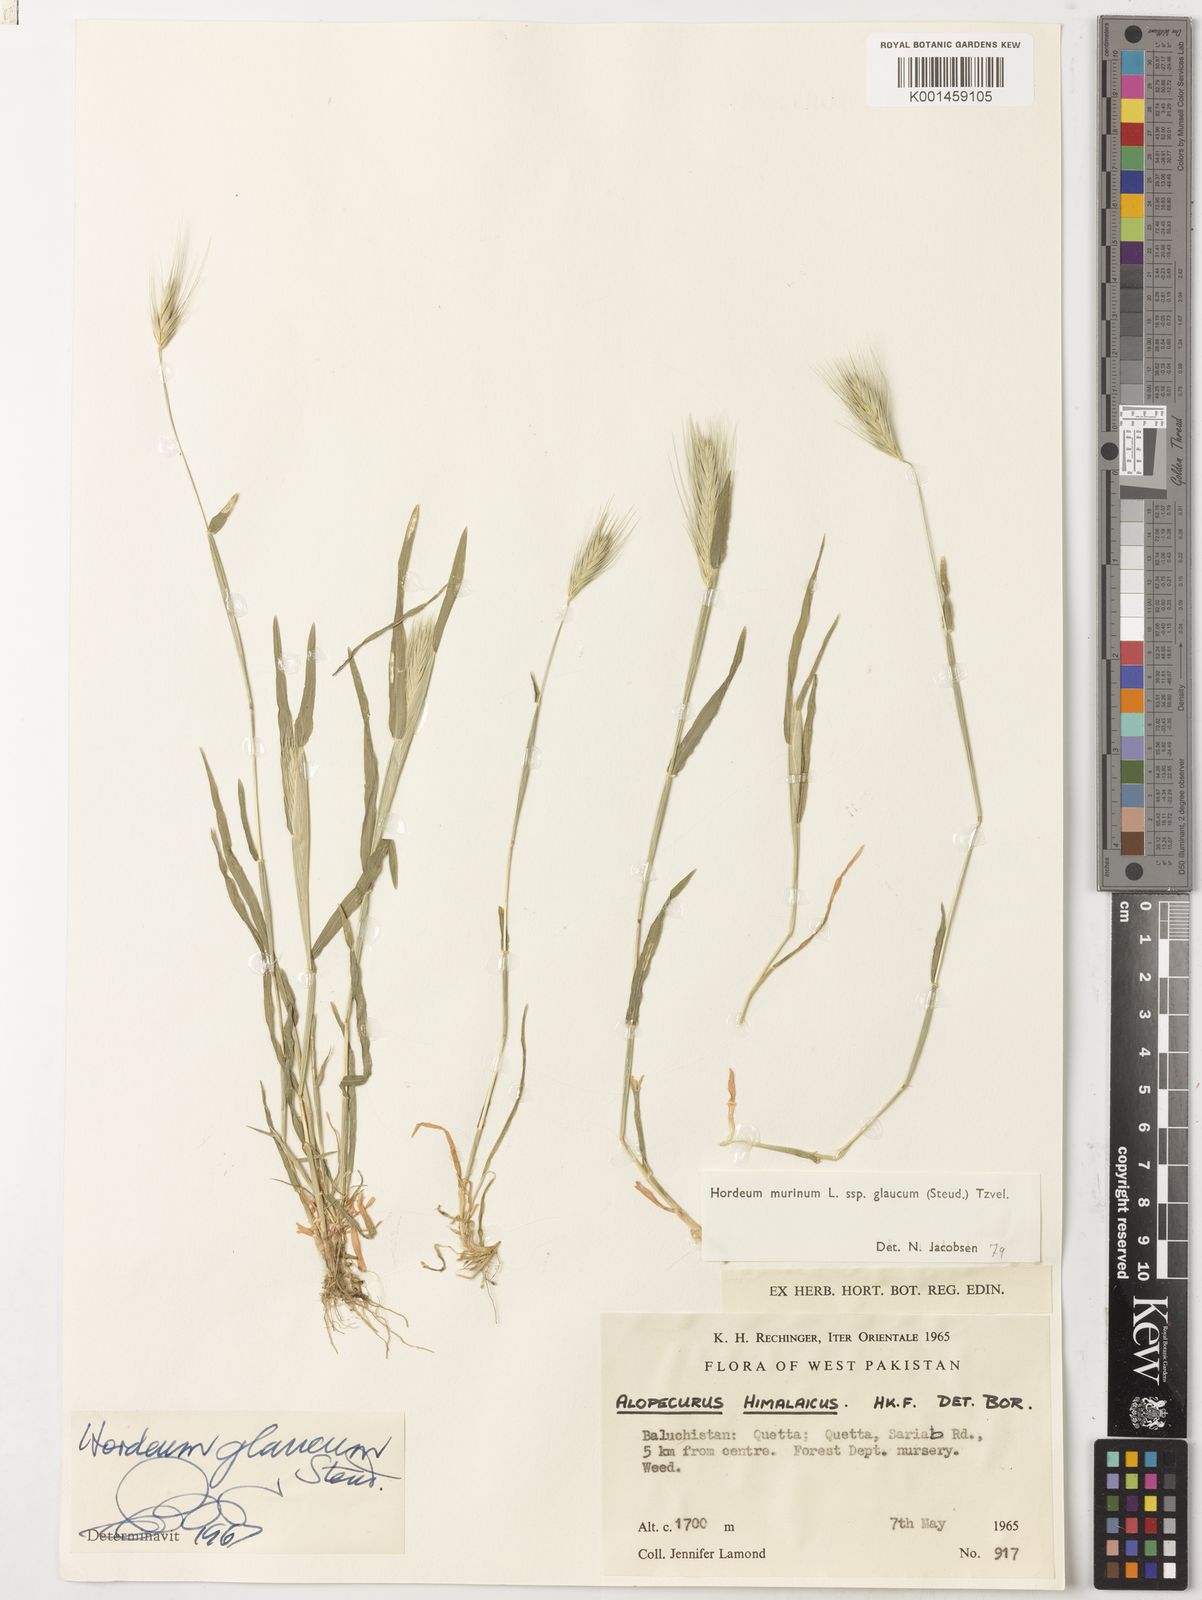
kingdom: Plantae
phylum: Tracheophyta
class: Liliopsida
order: Poales
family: Poaceae
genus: Hordeum
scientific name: Hordeum murinum
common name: Wall barley
